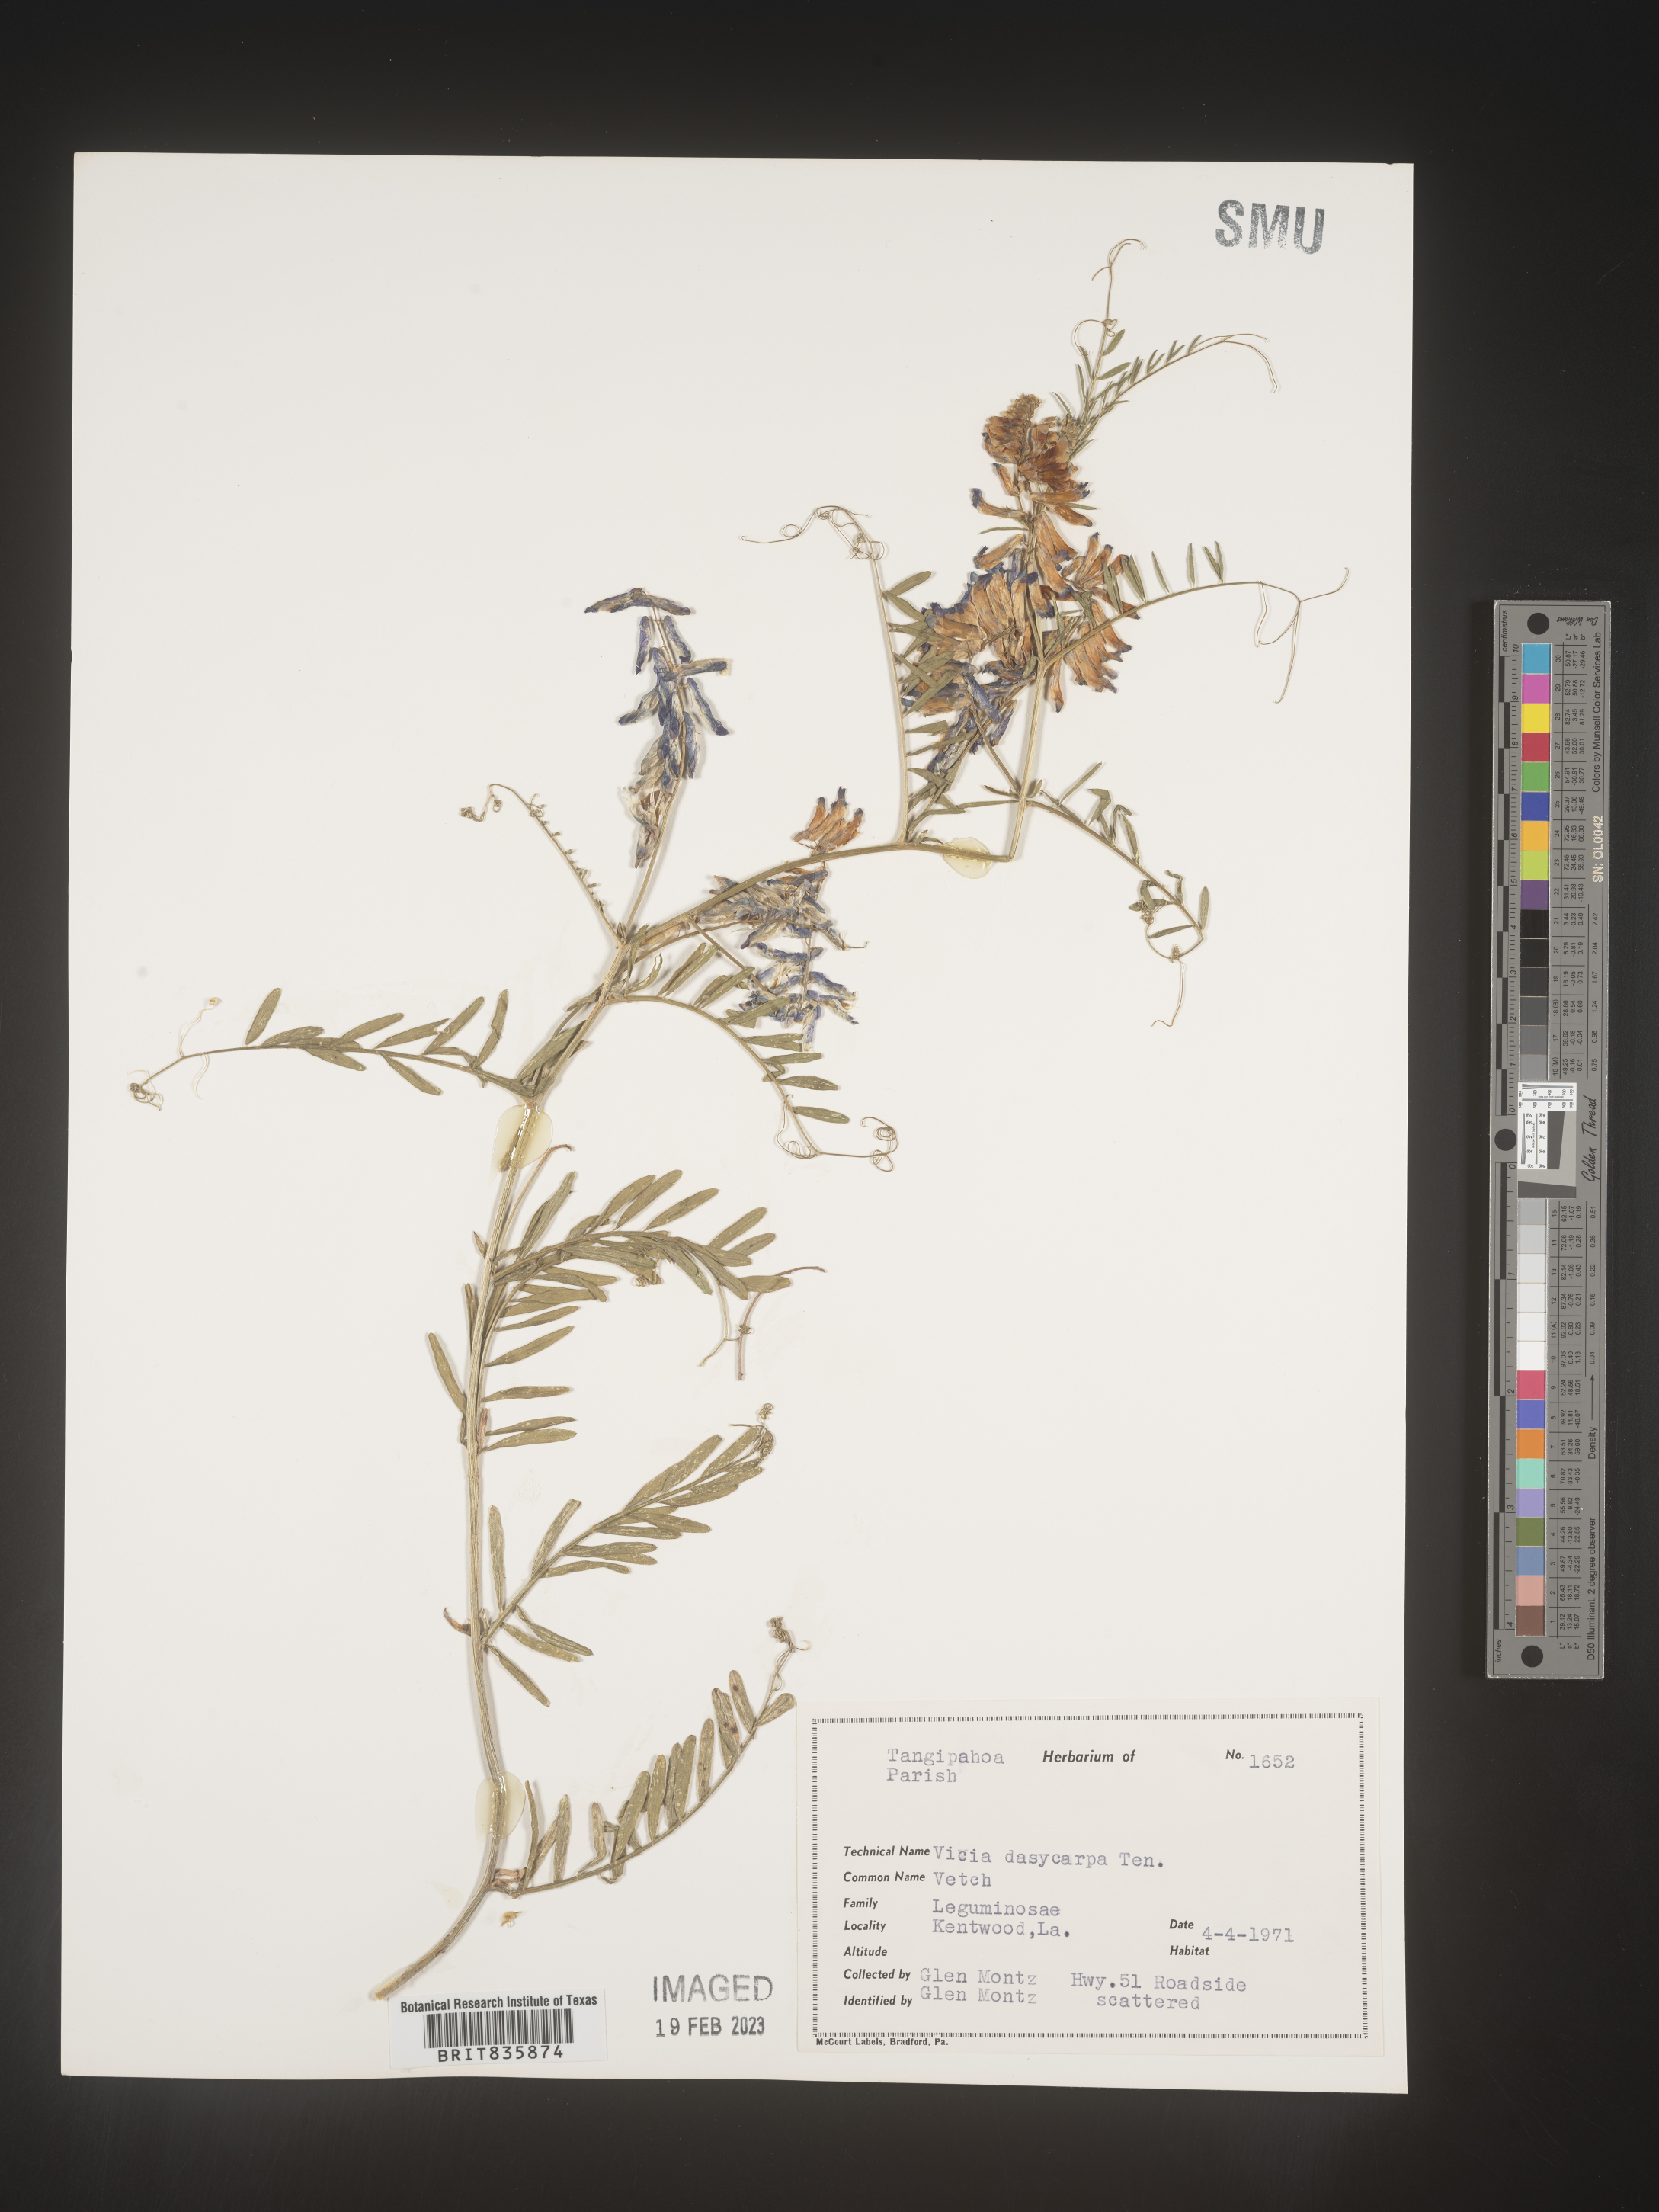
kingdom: Plantae
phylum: Tracheophyta
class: Magnoliopsida
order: Fabales
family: Fabaceae
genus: Vicia
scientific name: Vicia villosa
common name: Fodder vetch
